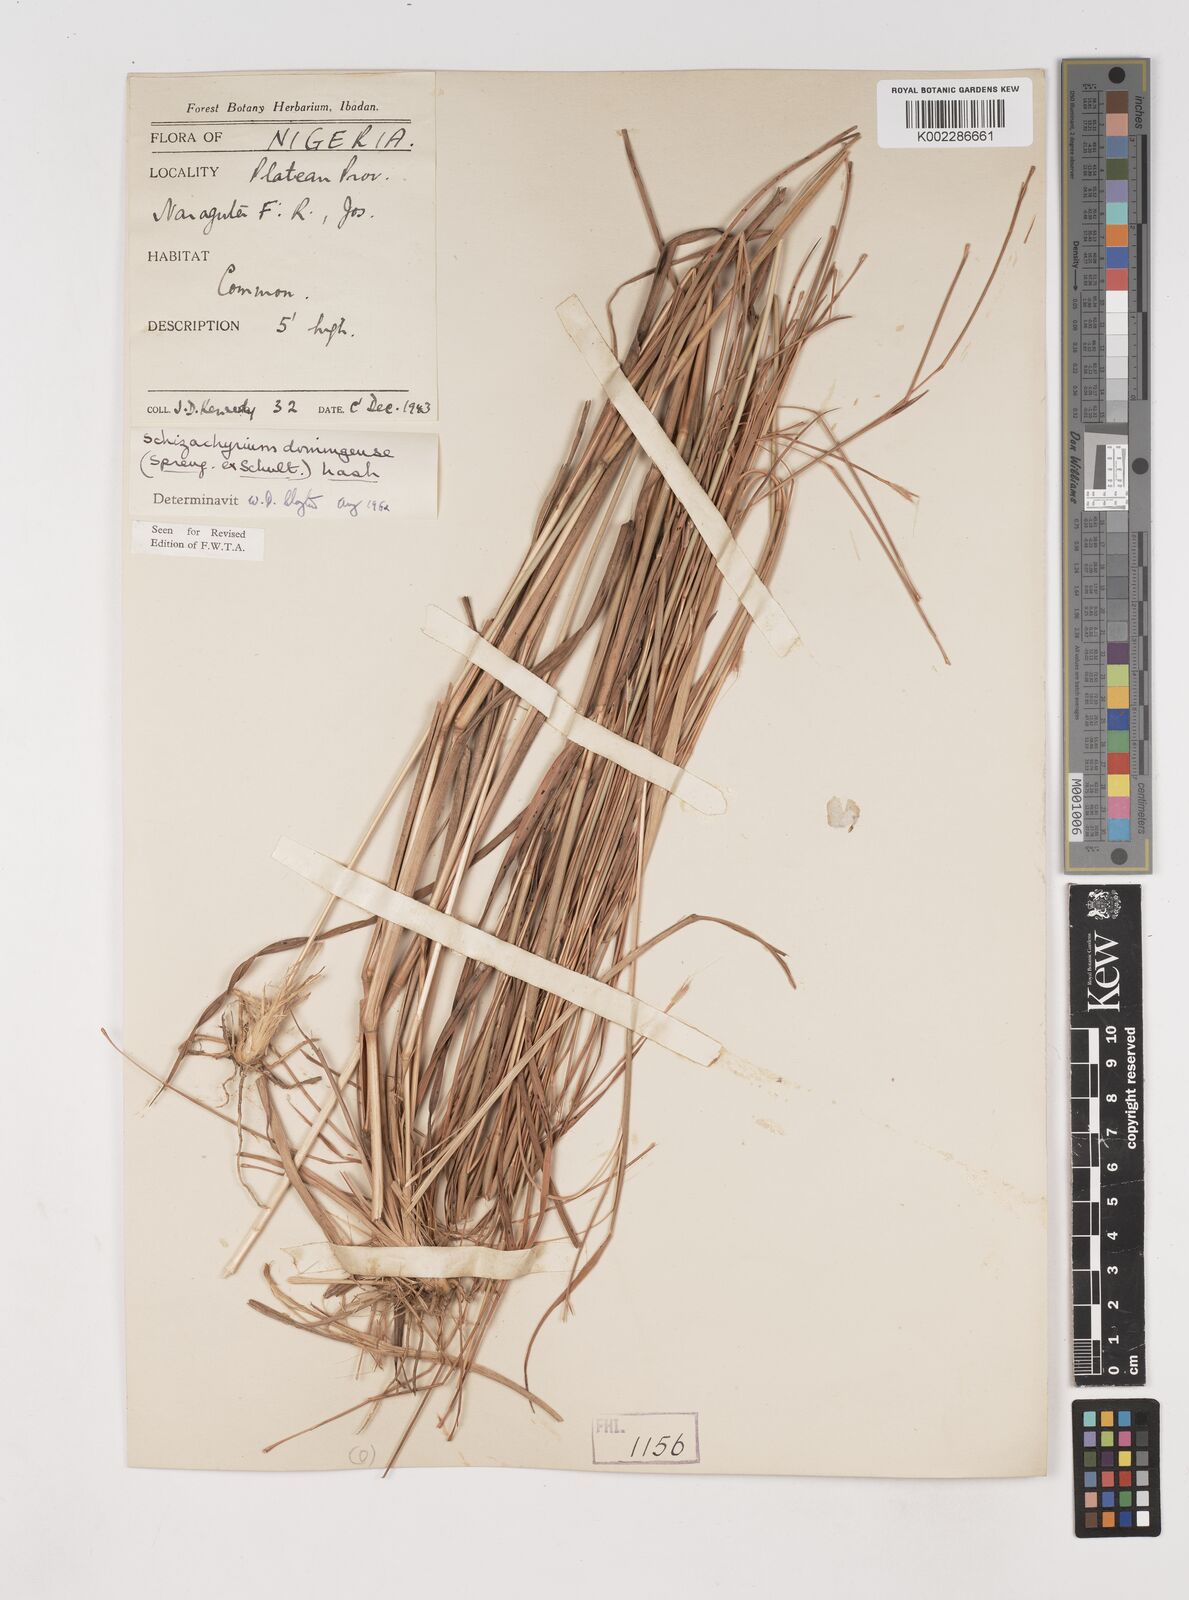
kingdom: Plantae
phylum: Tracheophyta
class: Liliopsida
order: Poales
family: Poaceae
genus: Schizachyrium
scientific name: Schizachyrium sanguineum
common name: Crimson bluestem
